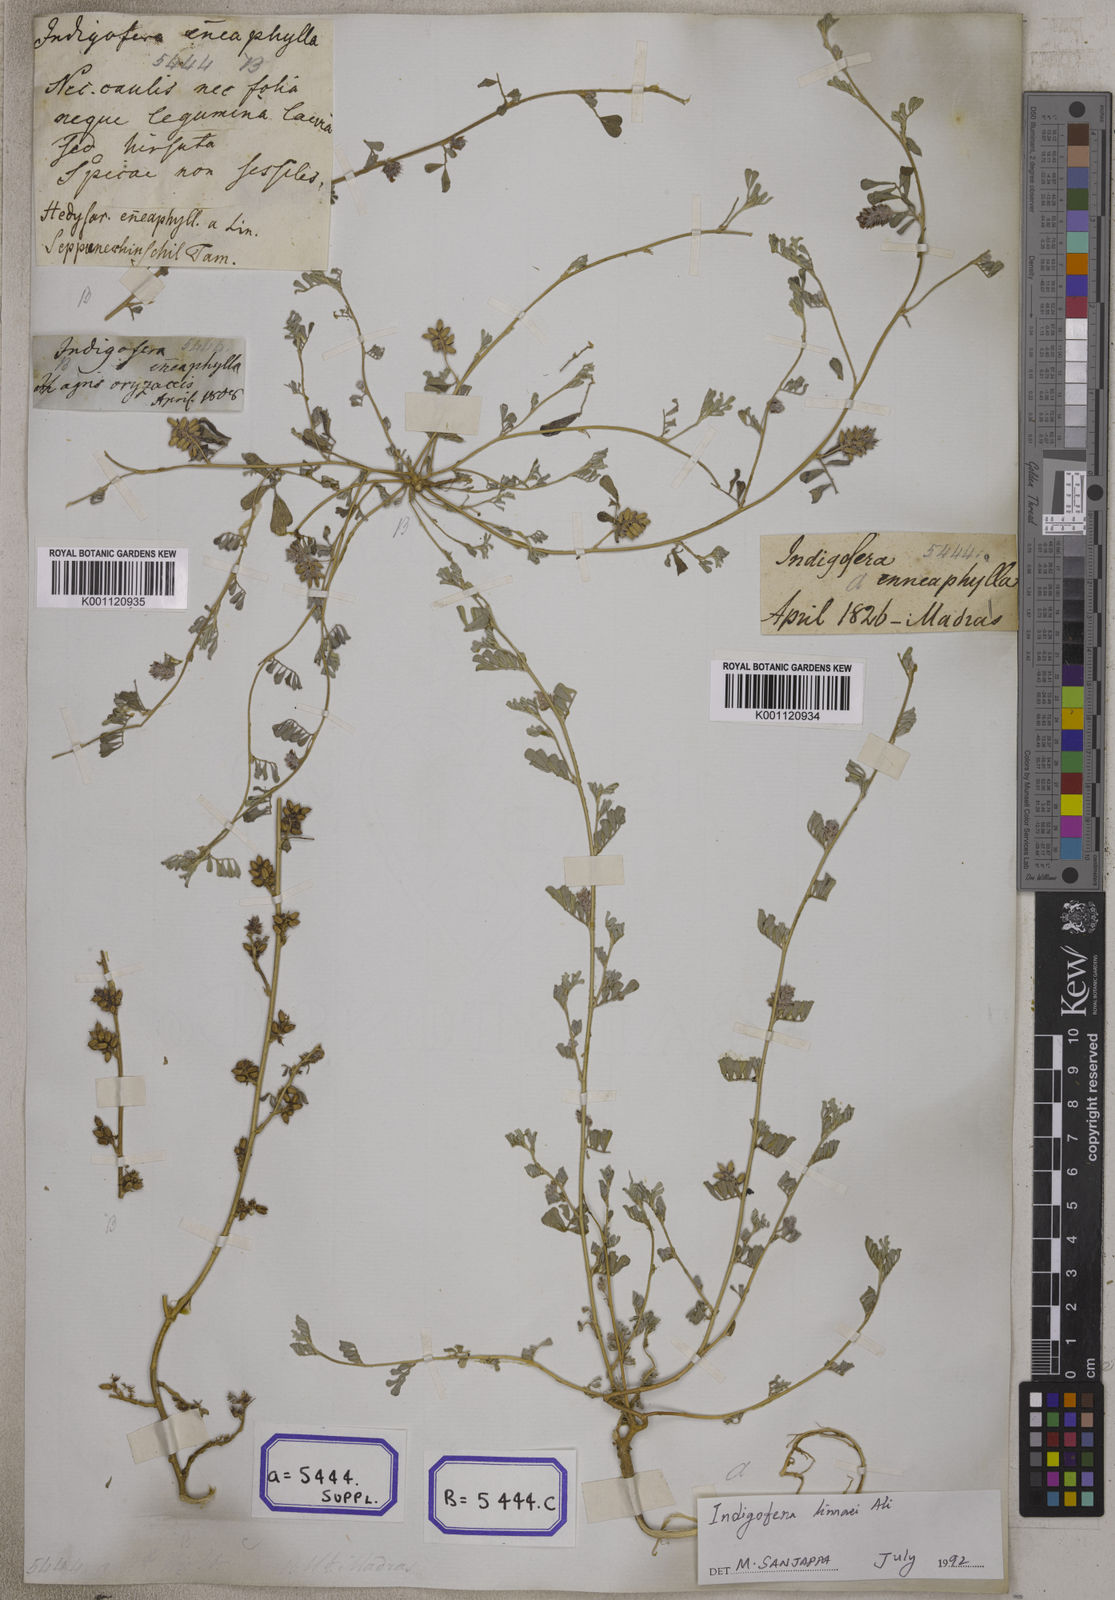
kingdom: Plantae
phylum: Tracheophyta
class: Magnoliopsida
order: Fabales
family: Fabaceae
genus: Indigofera
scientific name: Indigofera linnaei
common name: Nine-leaf indigo
